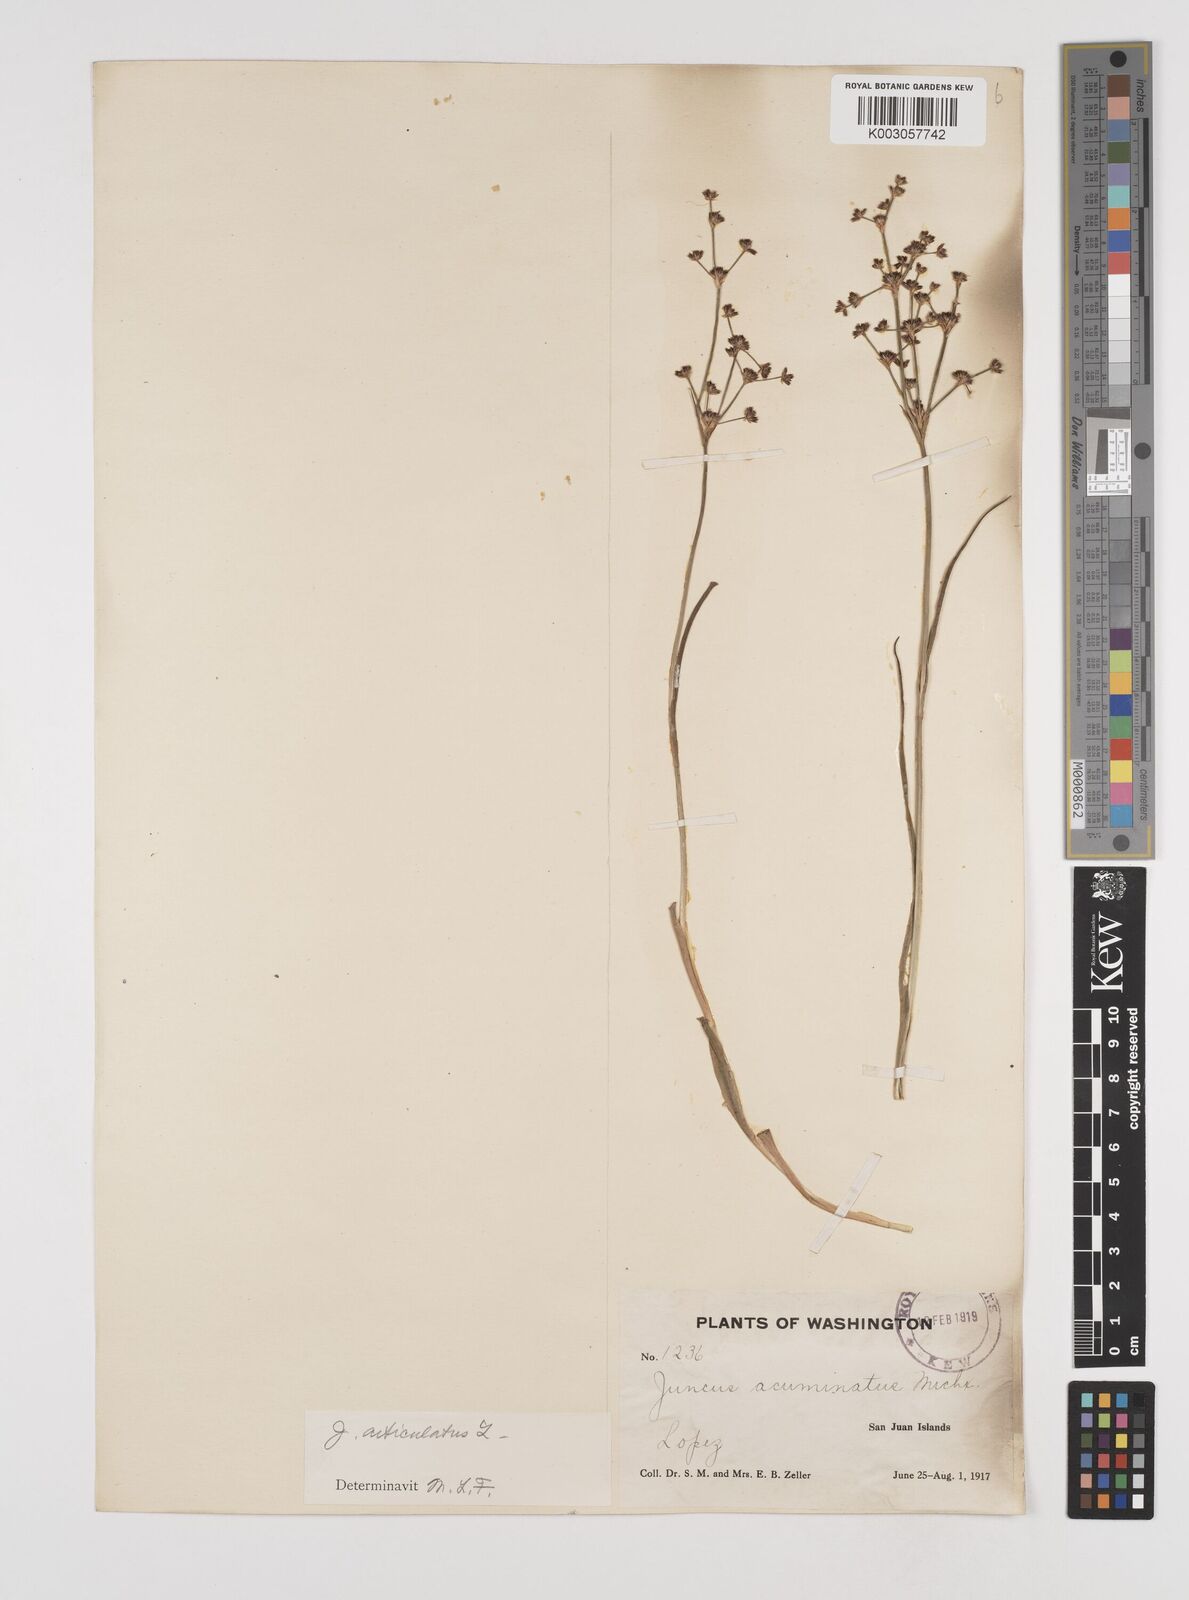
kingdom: Plantae
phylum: Tracheophyta
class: Liliopsida
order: Poales
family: Juncaceae
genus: Juncus
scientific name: Juncus articulatus
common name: Jointed rush
